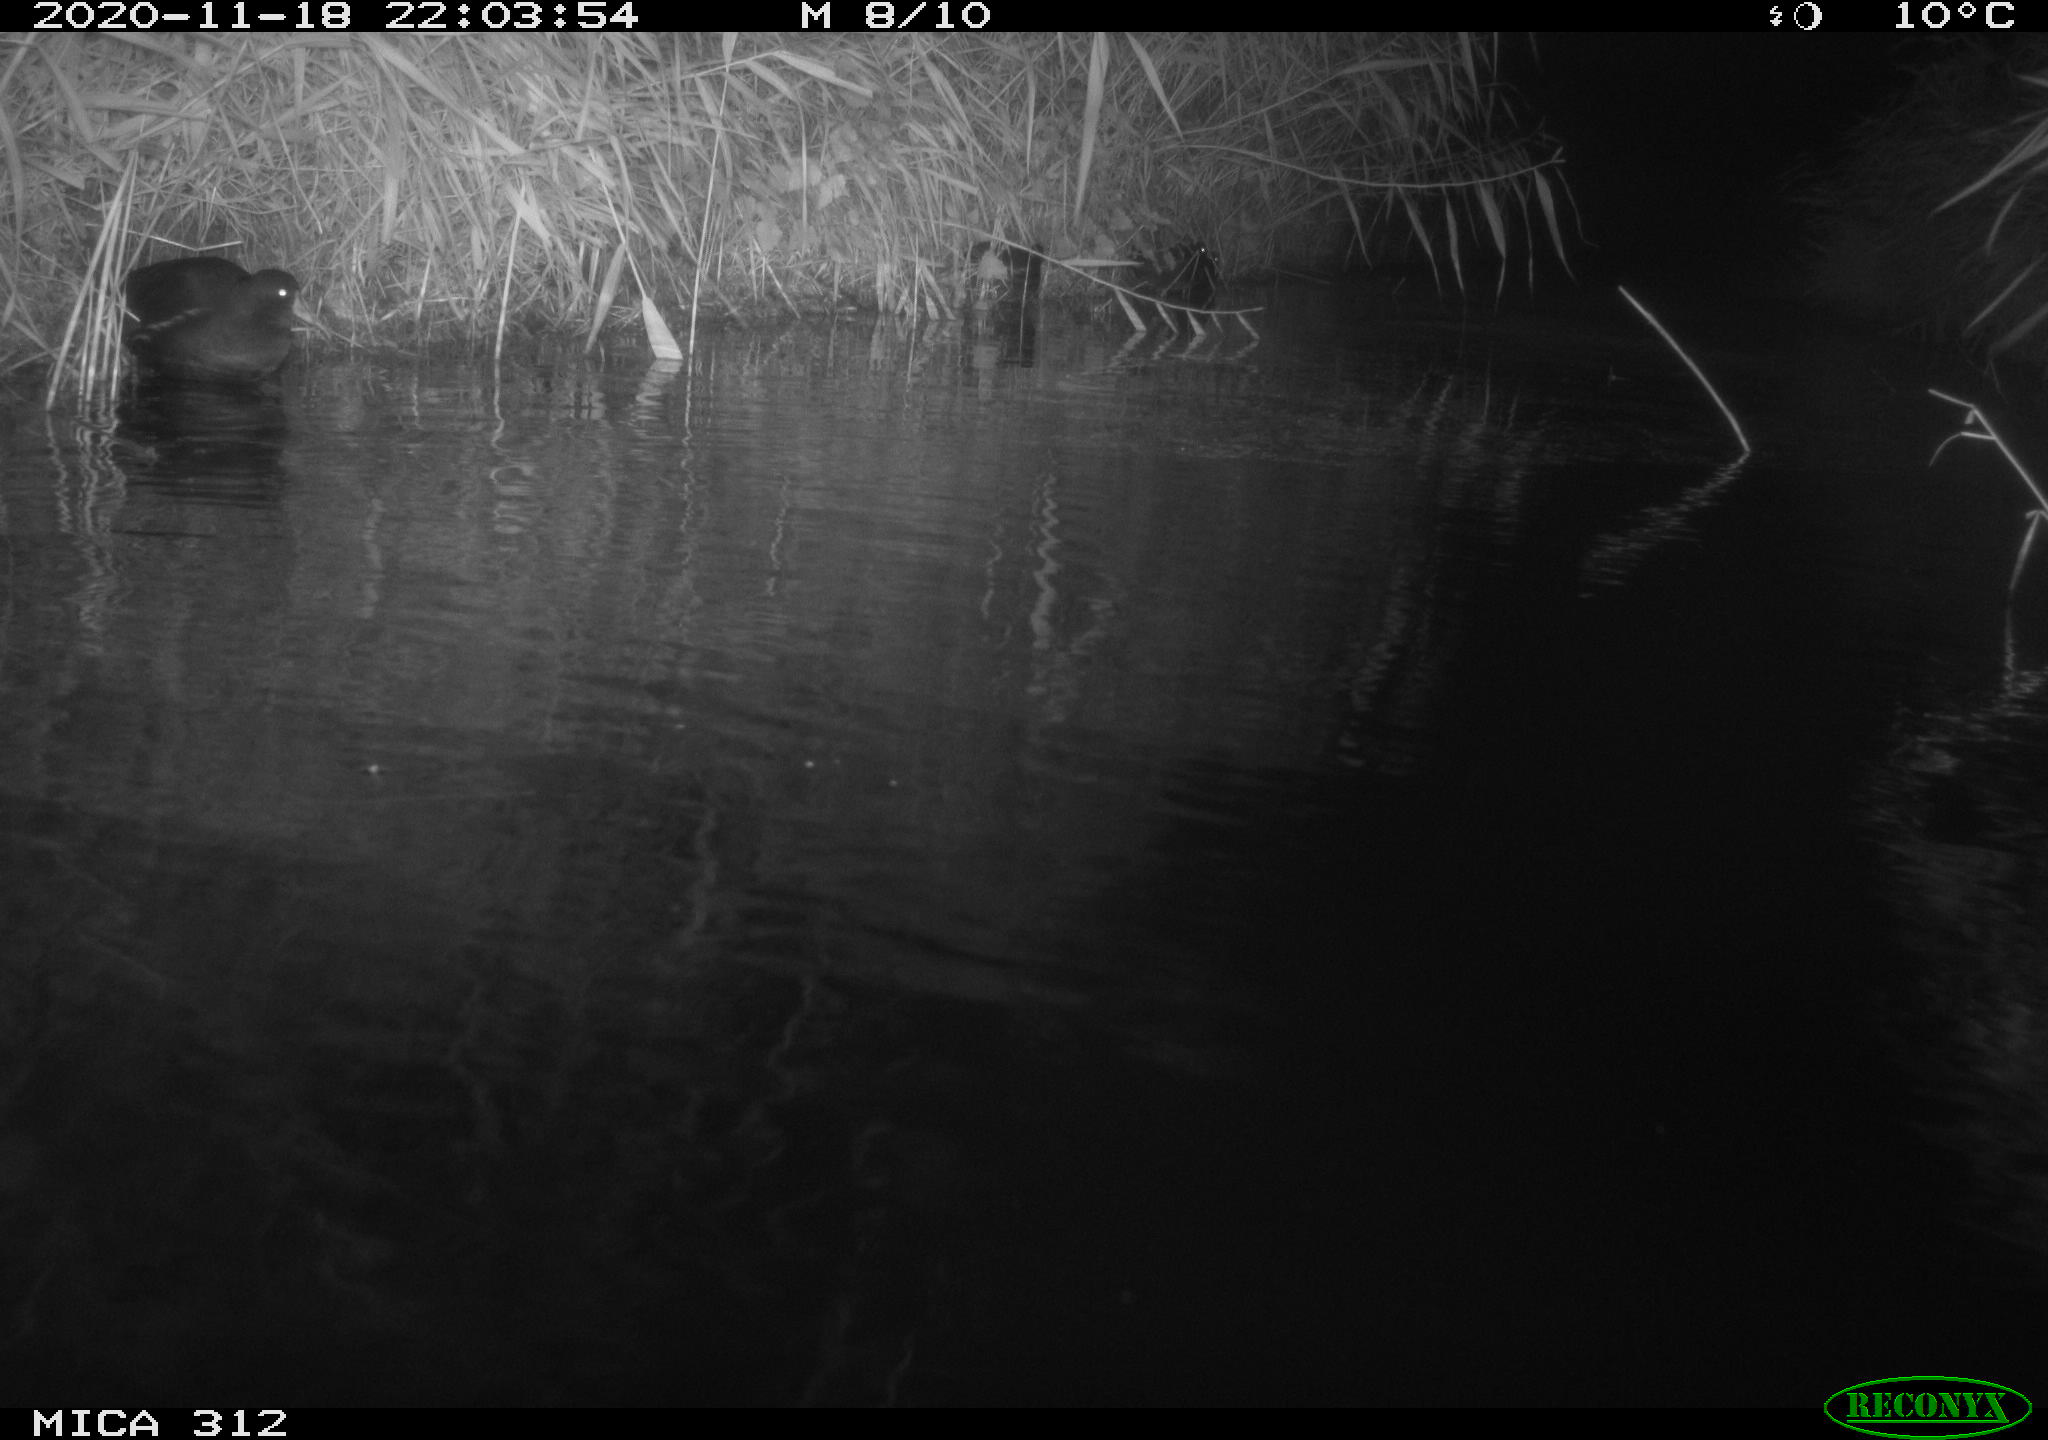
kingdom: Animalia
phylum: Chordata
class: Aves
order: Gruiformes
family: Rallidae
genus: Gallinula
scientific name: Gallinula chloropus
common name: Common moorhen
